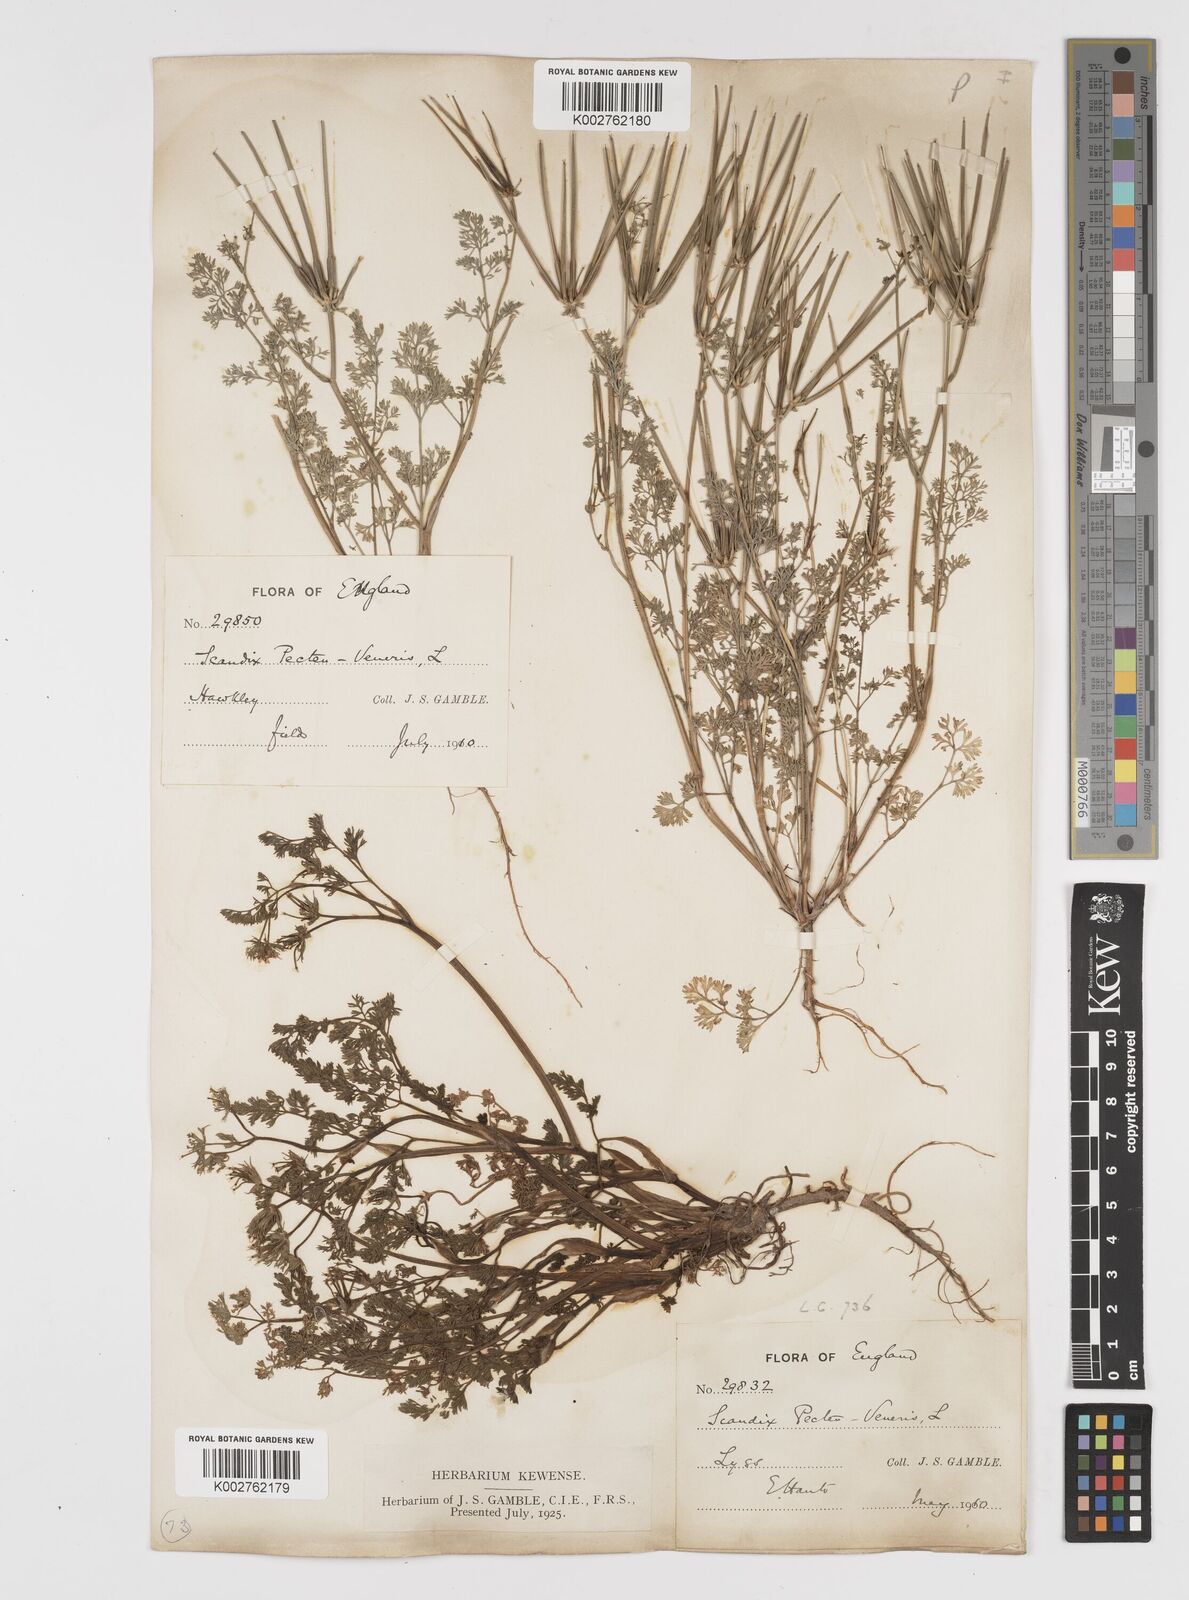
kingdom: Plantae
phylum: Tracheophyta
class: Magnoliopsida
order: Apiales
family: Apiaceae
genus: Scandix
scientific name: Scandix pecten-veneris
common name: Shepherd's-needle
